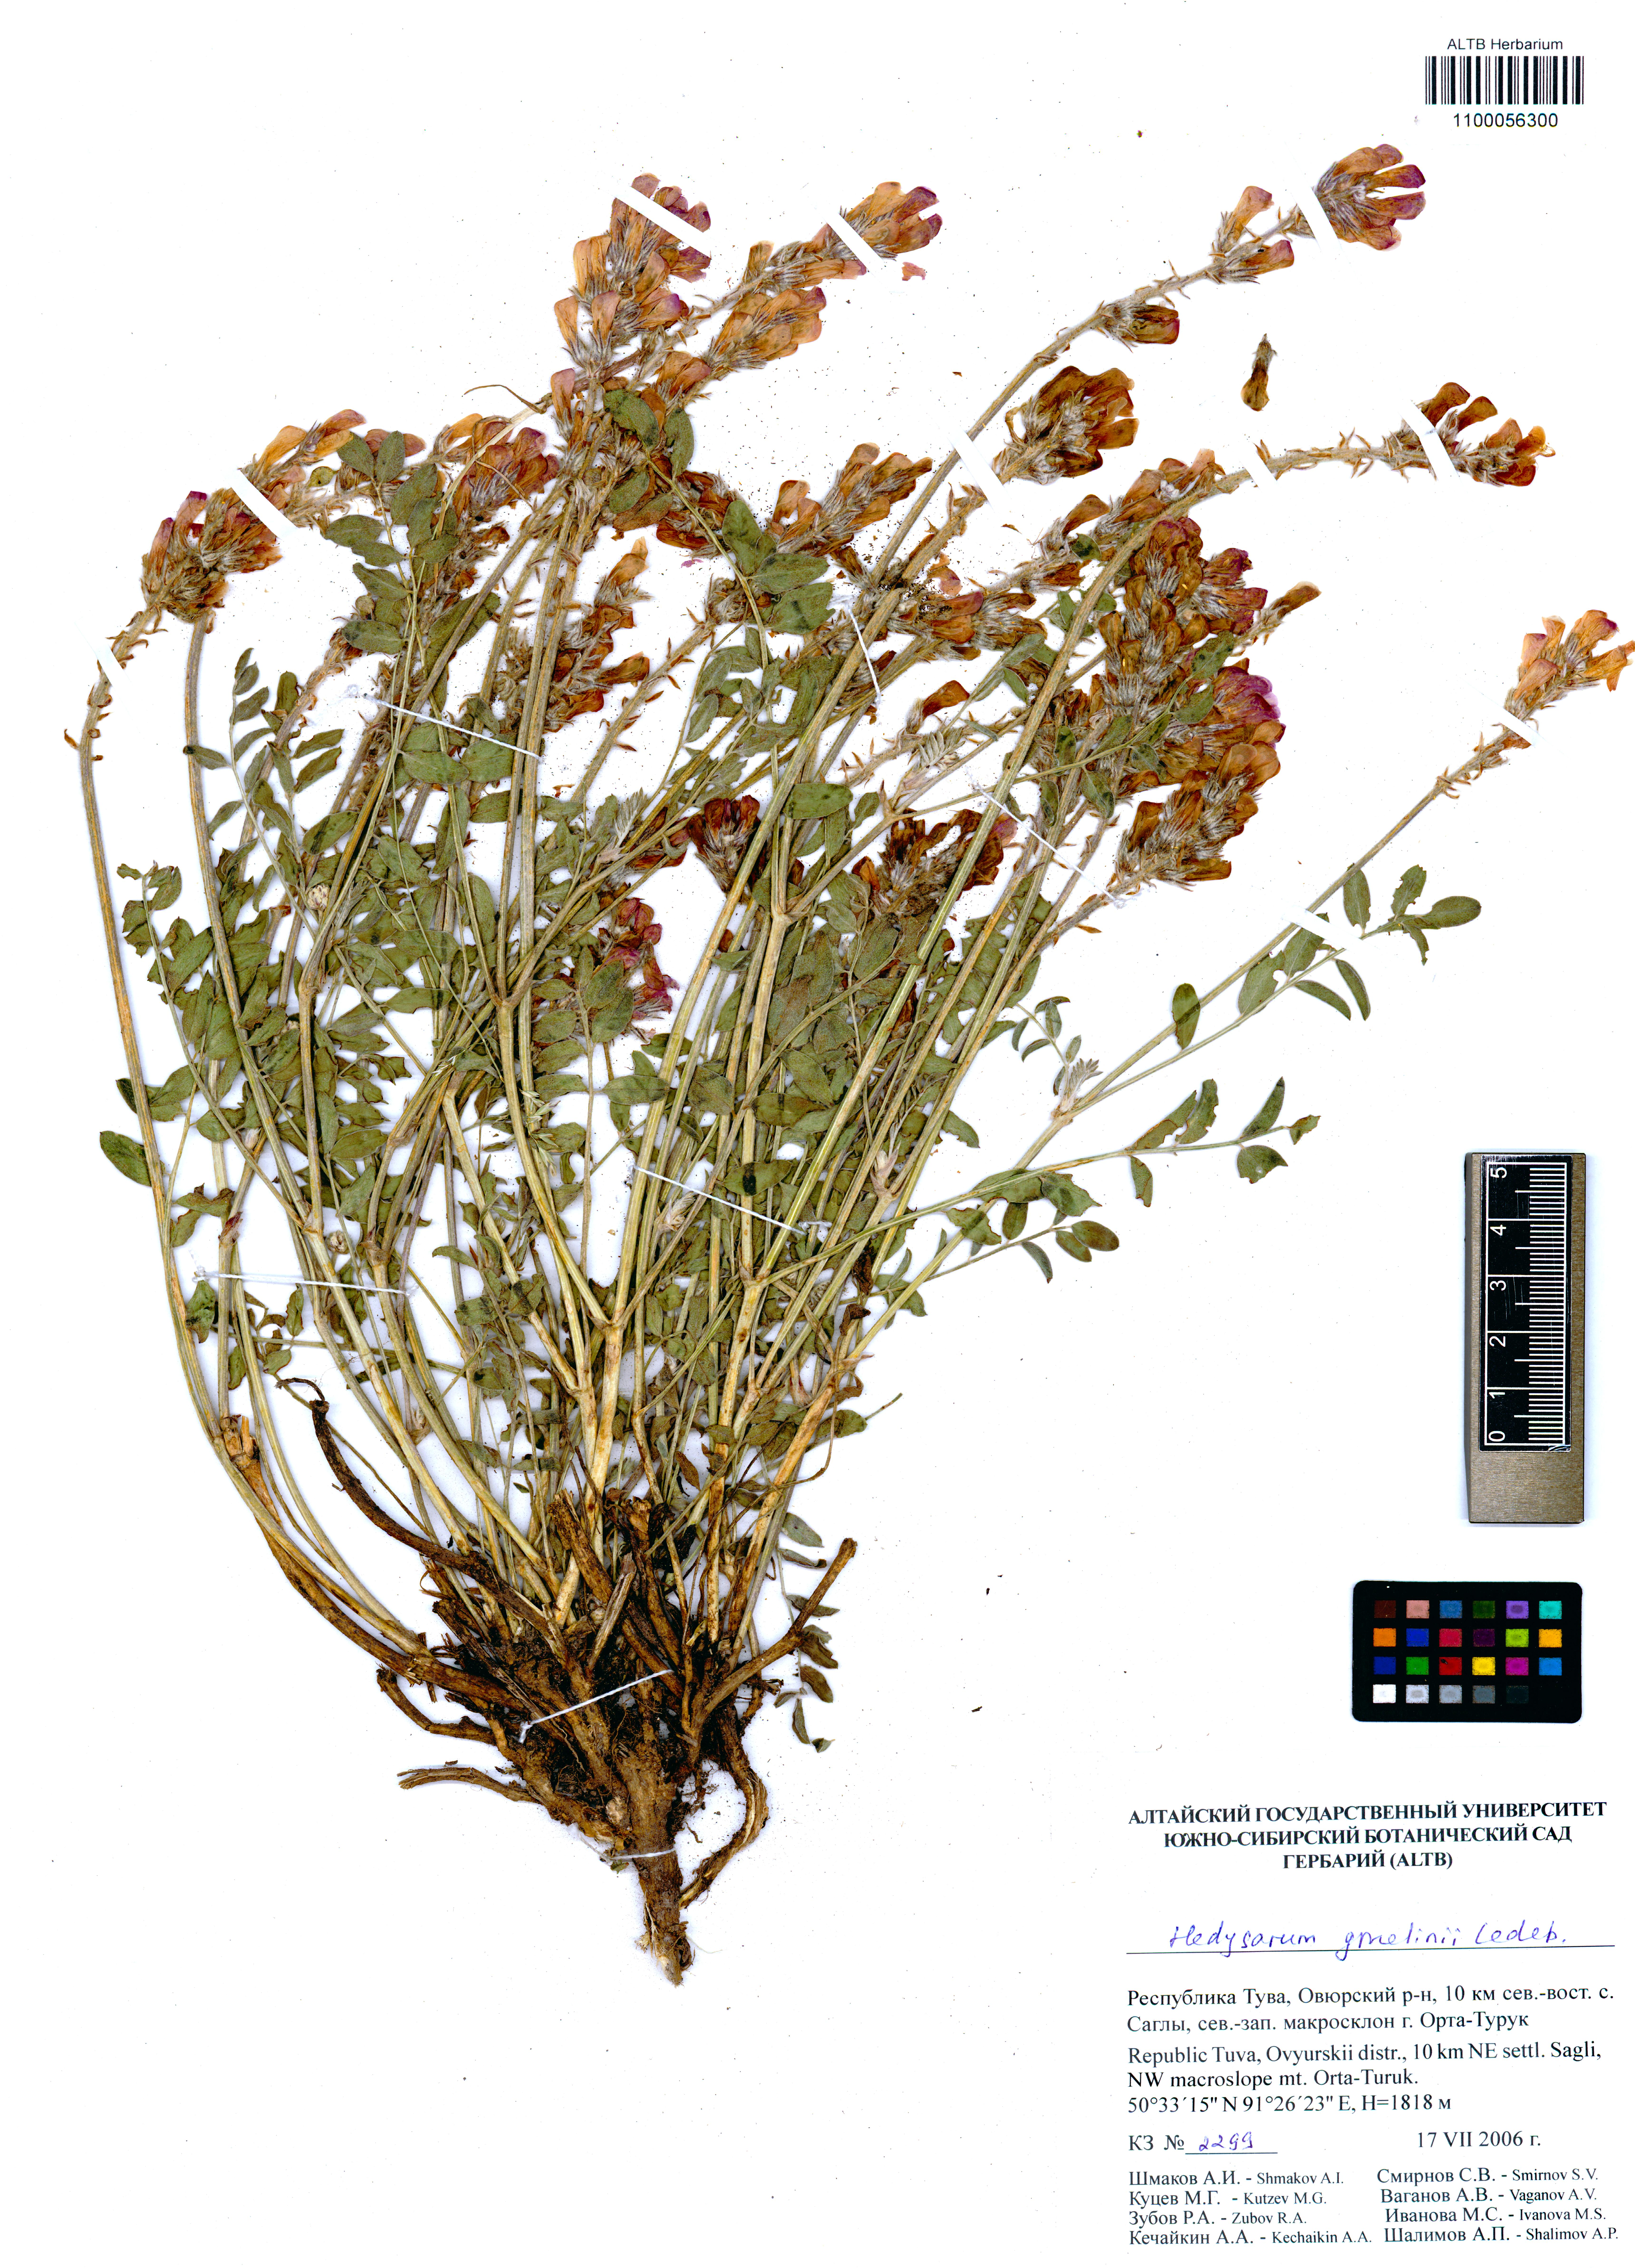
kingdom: Plantae
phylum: Tracheophyta
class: Magnoliopsida
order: Fabales
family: Fabaceae
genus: Hedysarum
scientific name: Hedysarum gmelinii
